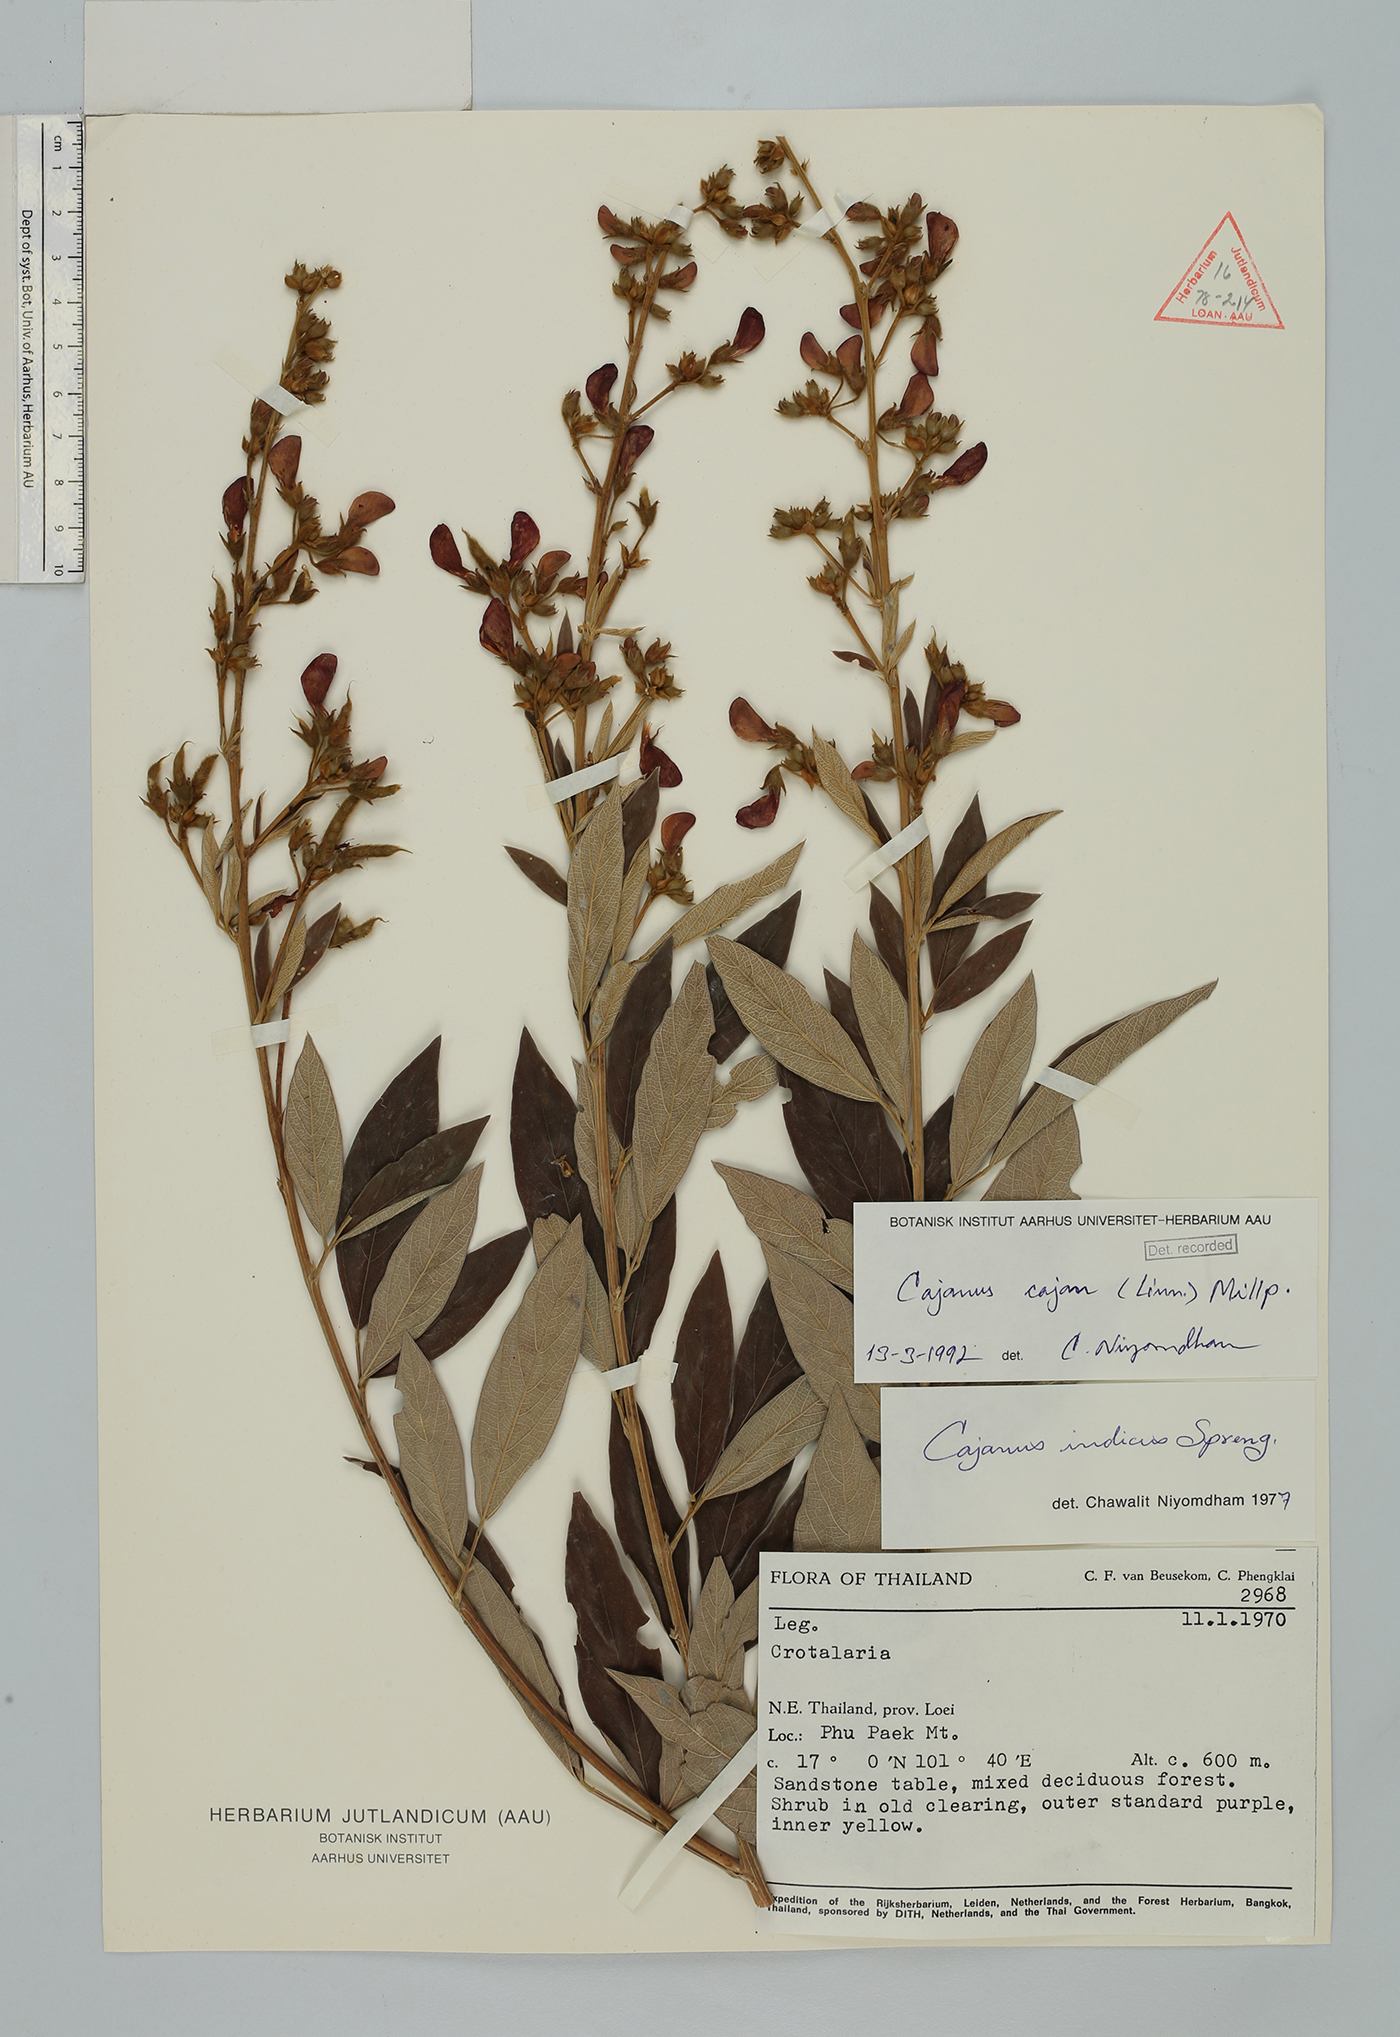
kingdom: Plantae
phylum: Tracheophyta
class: Magnoliopsida
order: Fabales
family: Fabaceae
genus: Cajanus
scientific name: Cajanus cajan
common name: Pigeonpea
